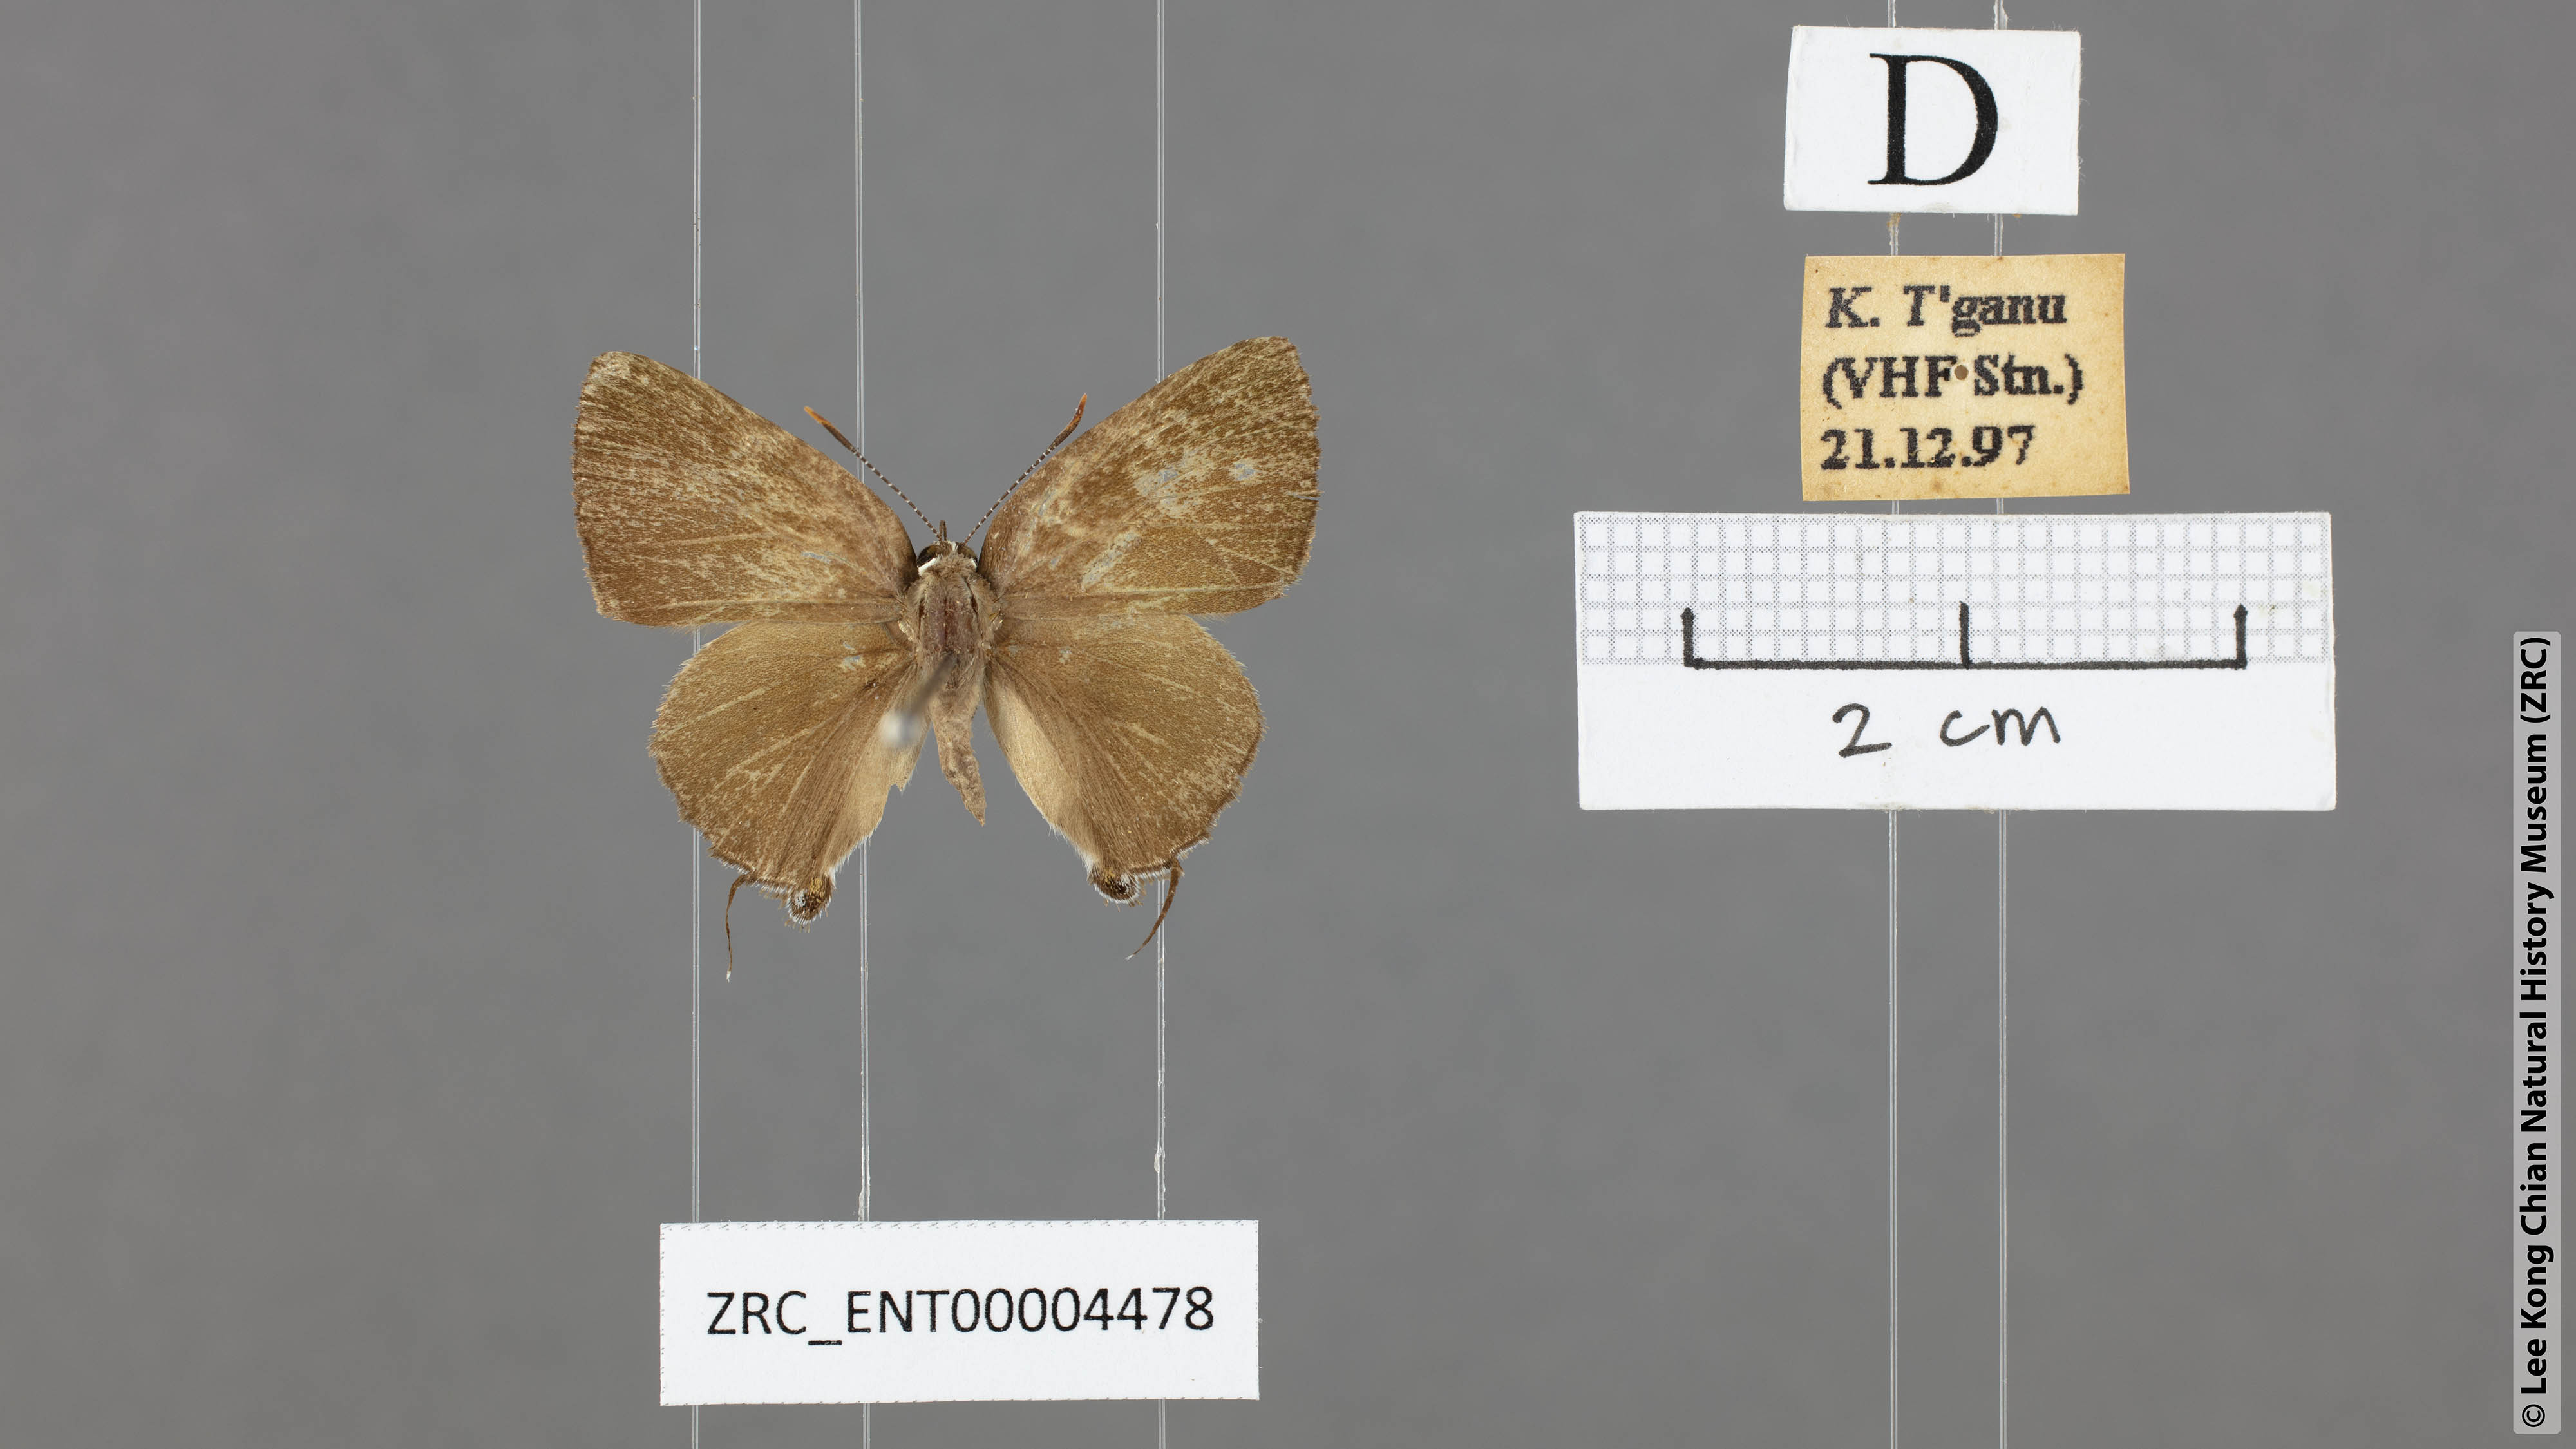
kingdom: Animalia
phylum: Arthropoda
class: Insecta
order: Lepidoptera
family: Lycaenidae
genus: Rapala
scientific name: Rapala dieneces
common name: Scarlet flash
